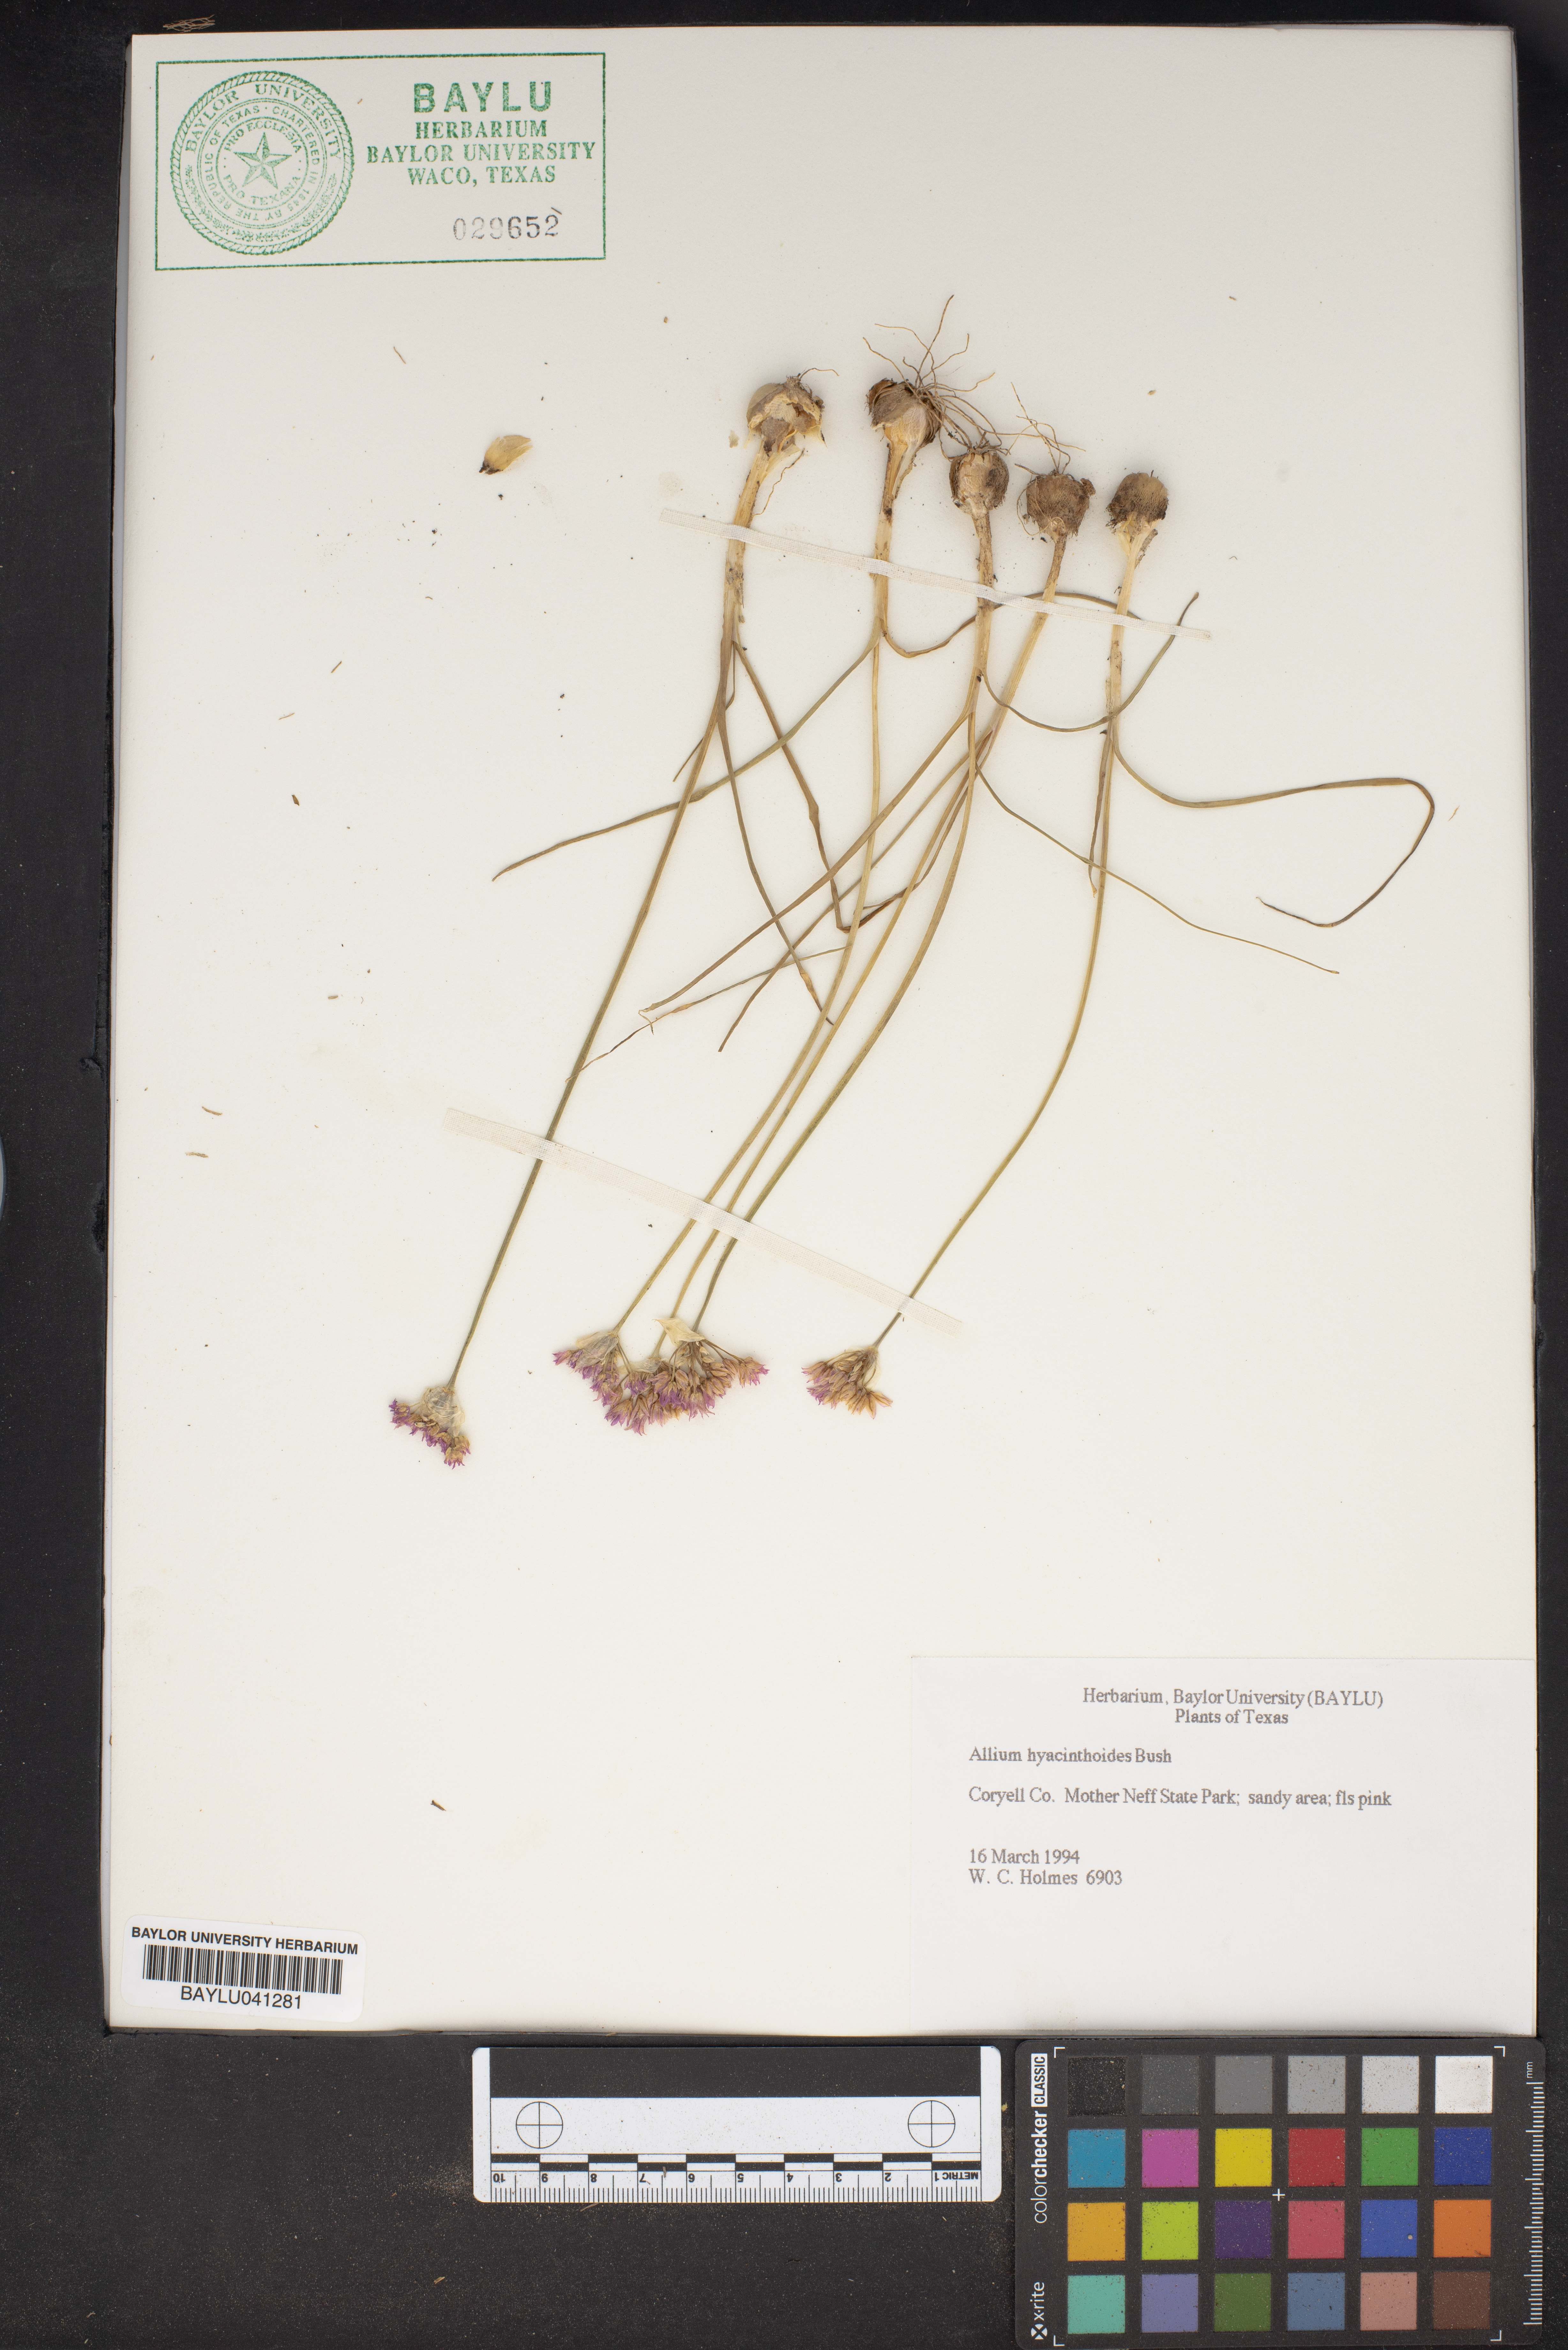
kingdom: Plantae
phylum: Tracheophyta
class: Liliopsida
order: Asparagales
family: Amaryllidaceae
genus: Allium
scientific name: Allium canadense
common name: Meadow garlic
